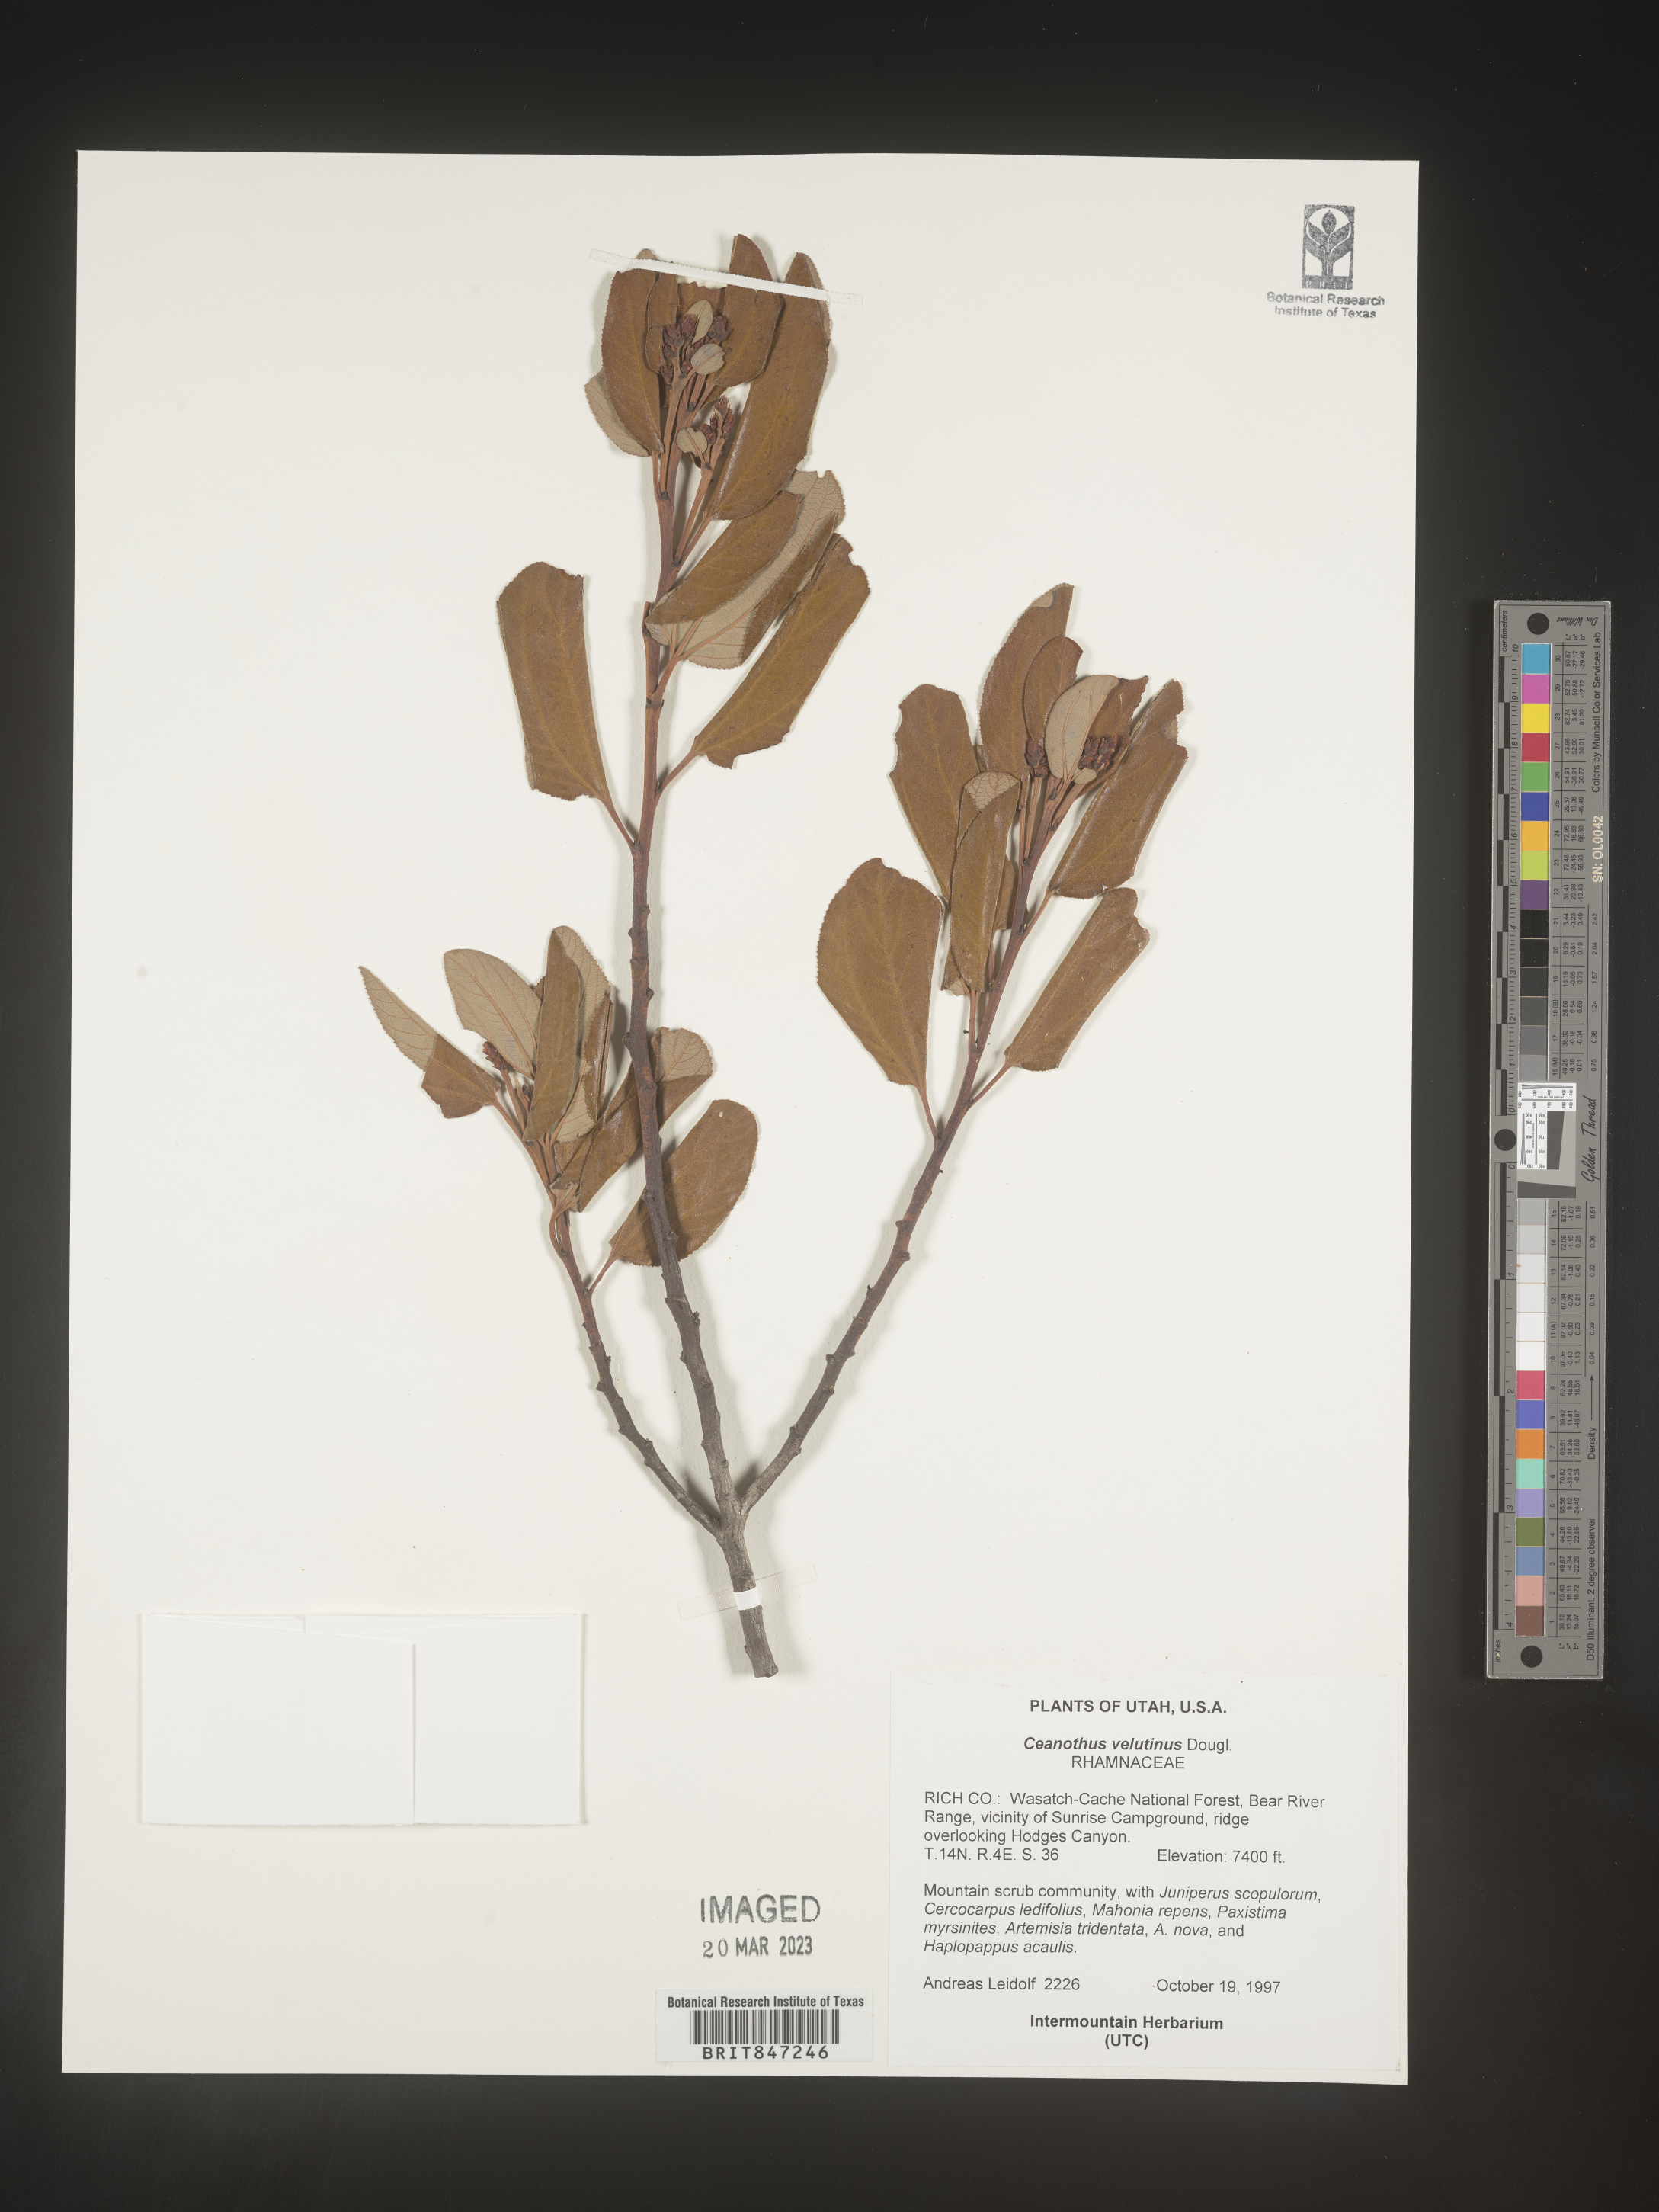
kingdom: Plantae
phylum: Tracheophyta
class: Magnoliopsida
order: Rosales
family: Rhamnaceae
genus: Ceanothus
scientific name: Ceanothus velutinus
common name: Snowbrush
